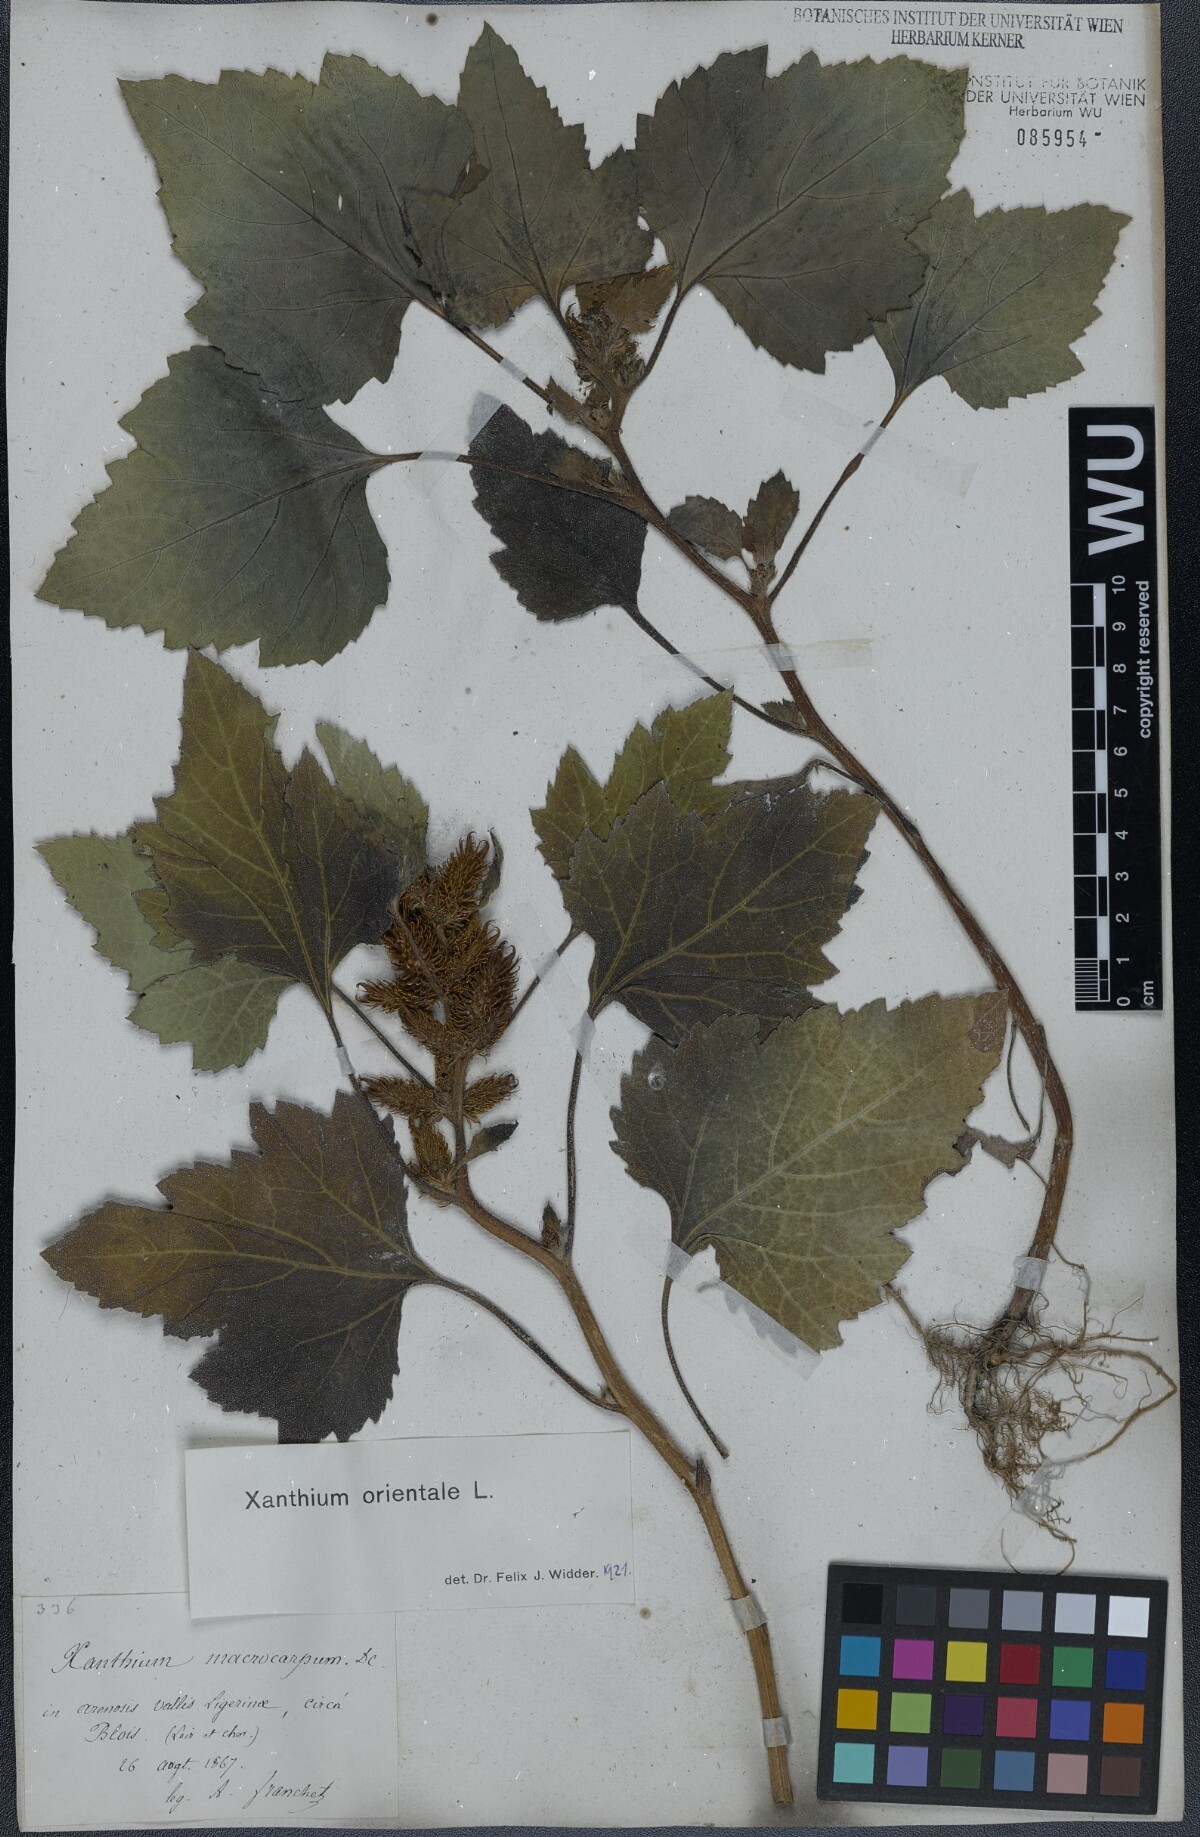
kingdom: Plantae
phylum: Tracheophyta
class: Magnoliopsida
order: Asterales
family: Asteraceae
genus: Xanthium
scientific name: Xanthium orientale
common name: Californian burr
